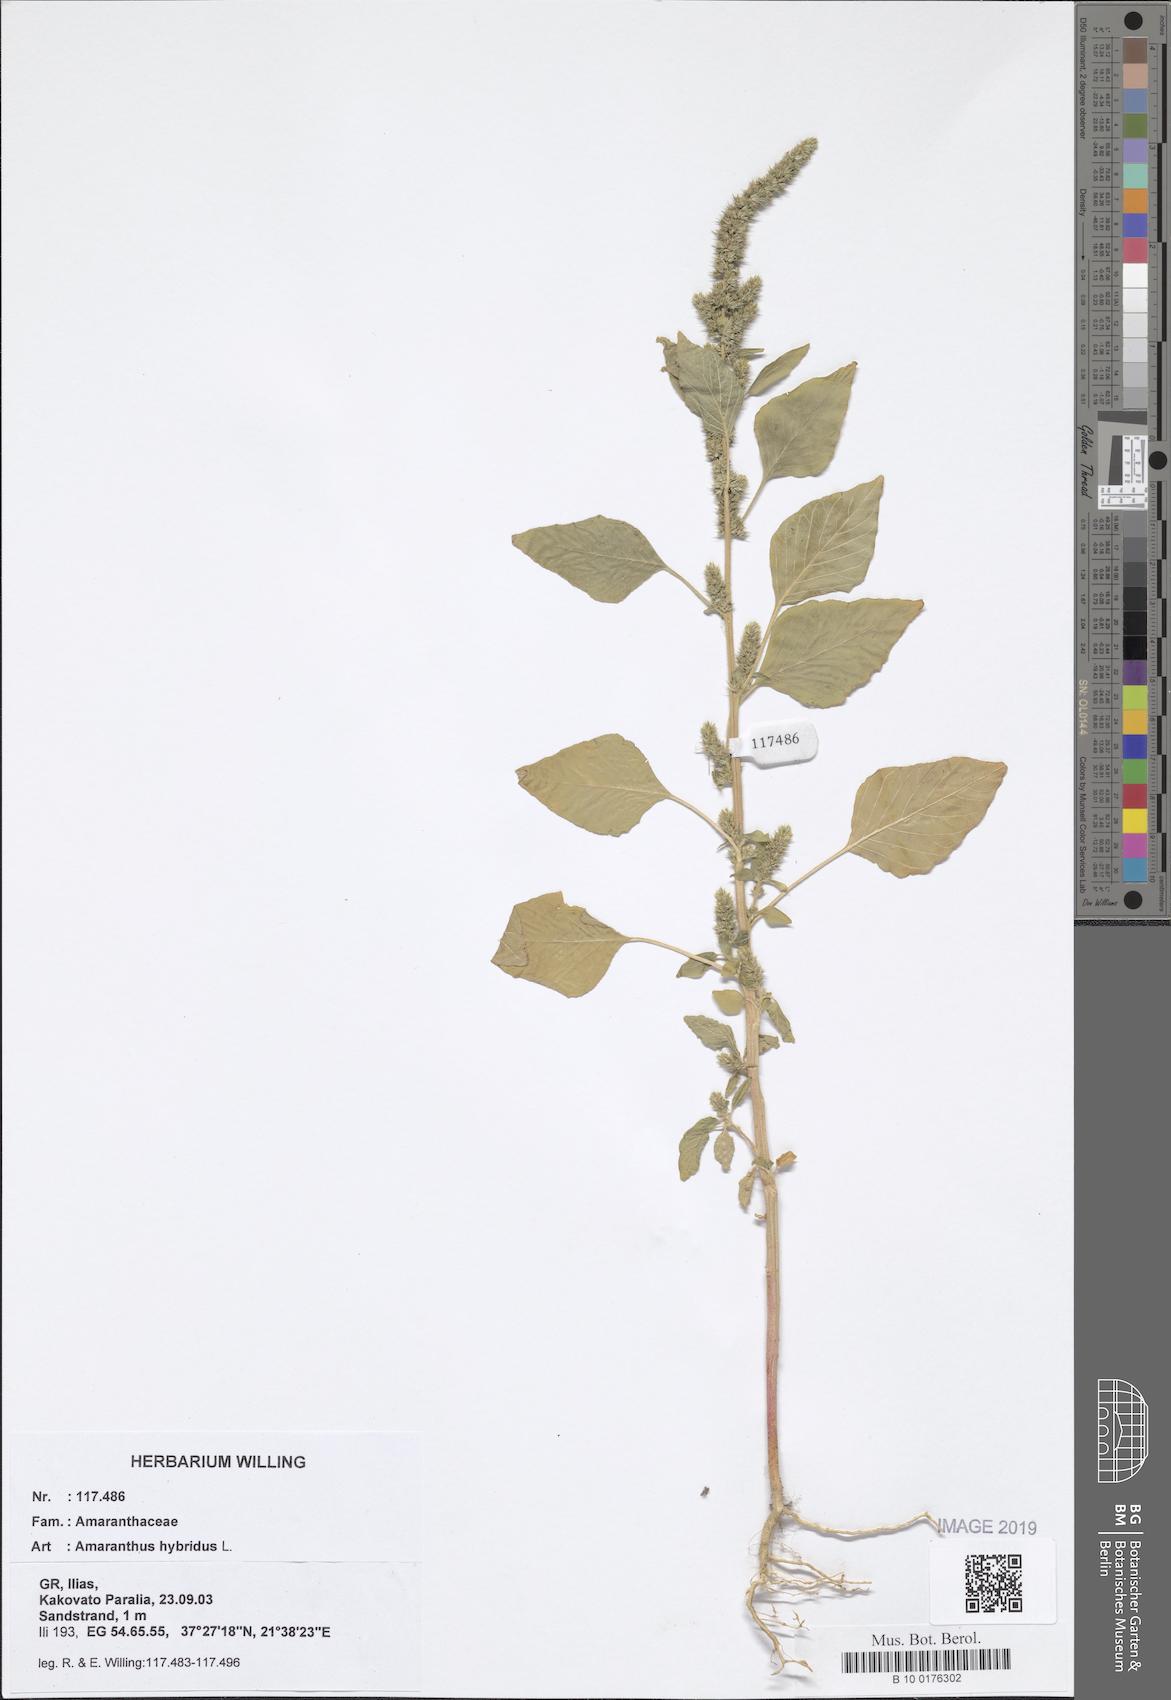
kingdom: Plantae
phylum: Tracheophyta
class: Magnoliopsida
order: Caryophyllales
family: Amaranthaceae
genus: Amaranthus
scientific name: Amaranthus hybridus
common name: Green amaranth
